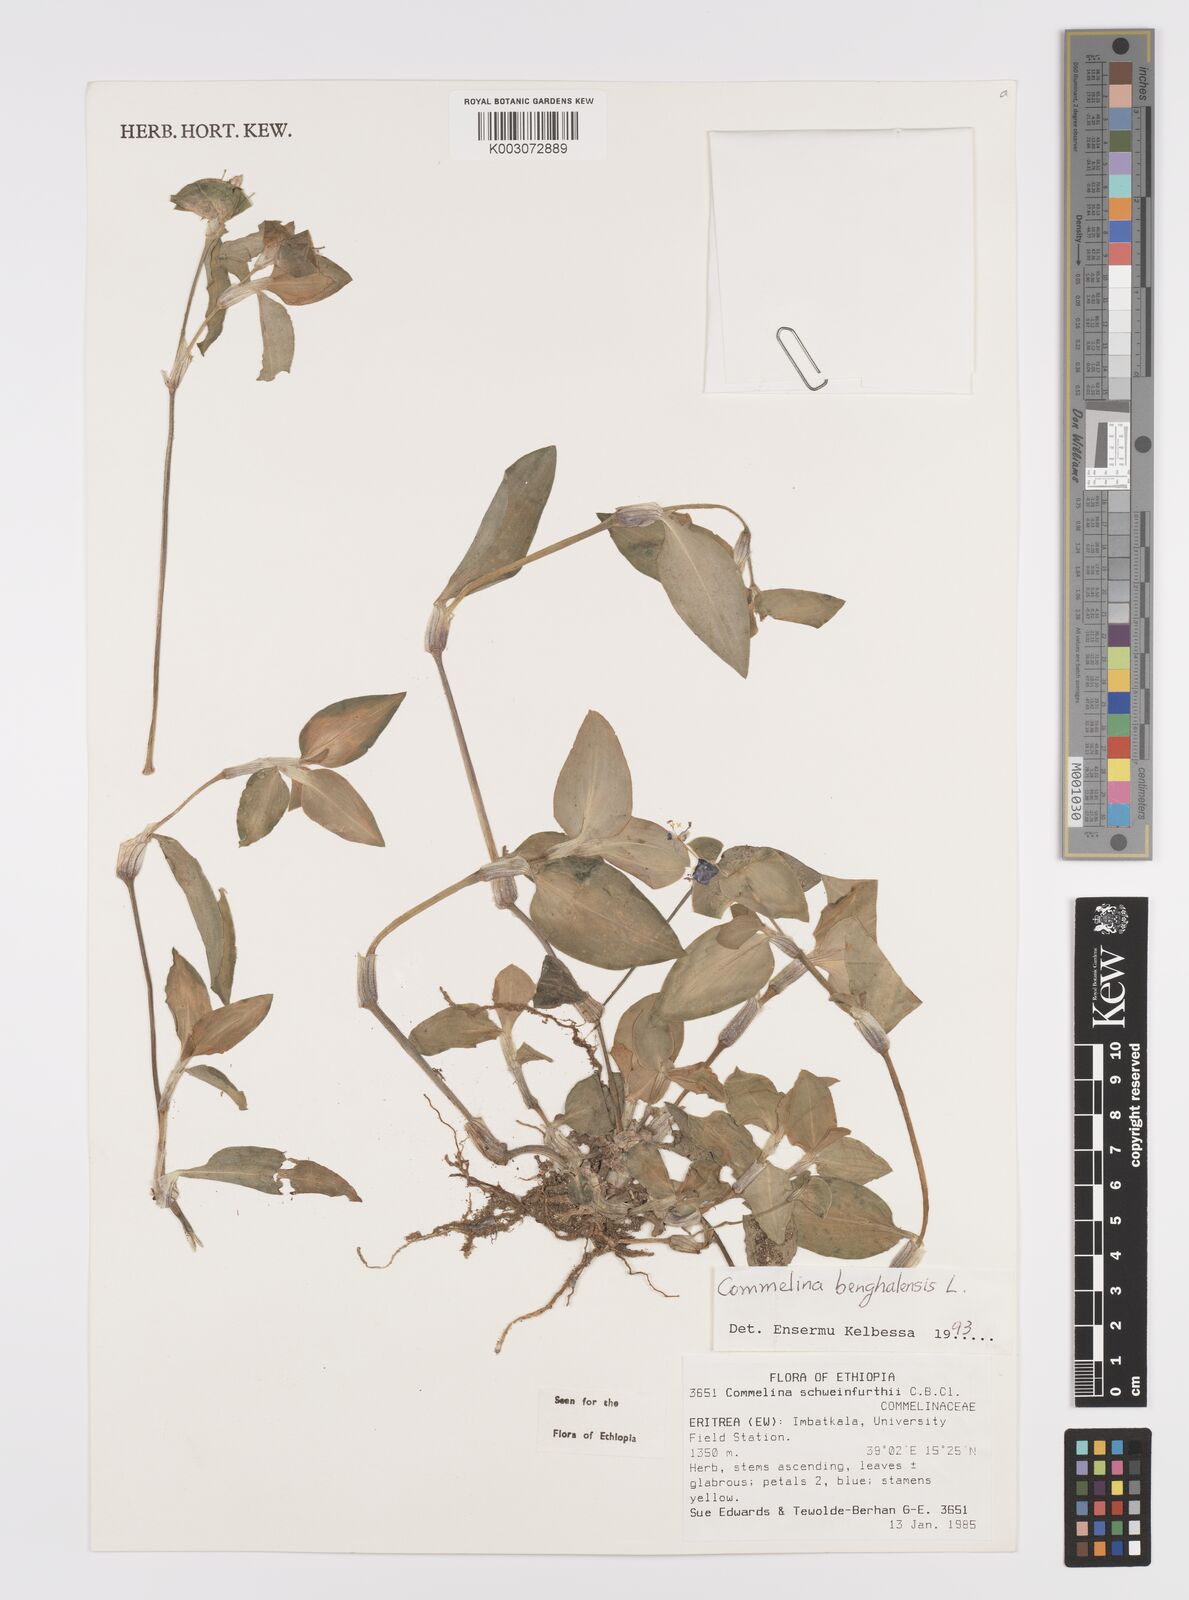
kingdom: Plantae
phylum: Tracheophyta
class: Liliopsida
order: Commelinales
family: Commelinaceae
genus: Commelina
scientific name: Commelina benghalensis
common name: Jio
